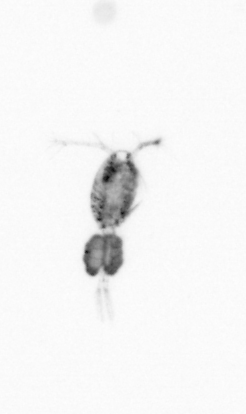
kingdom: Animalia
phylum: Arthropoda
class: Copepoda
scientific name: Copepoda
